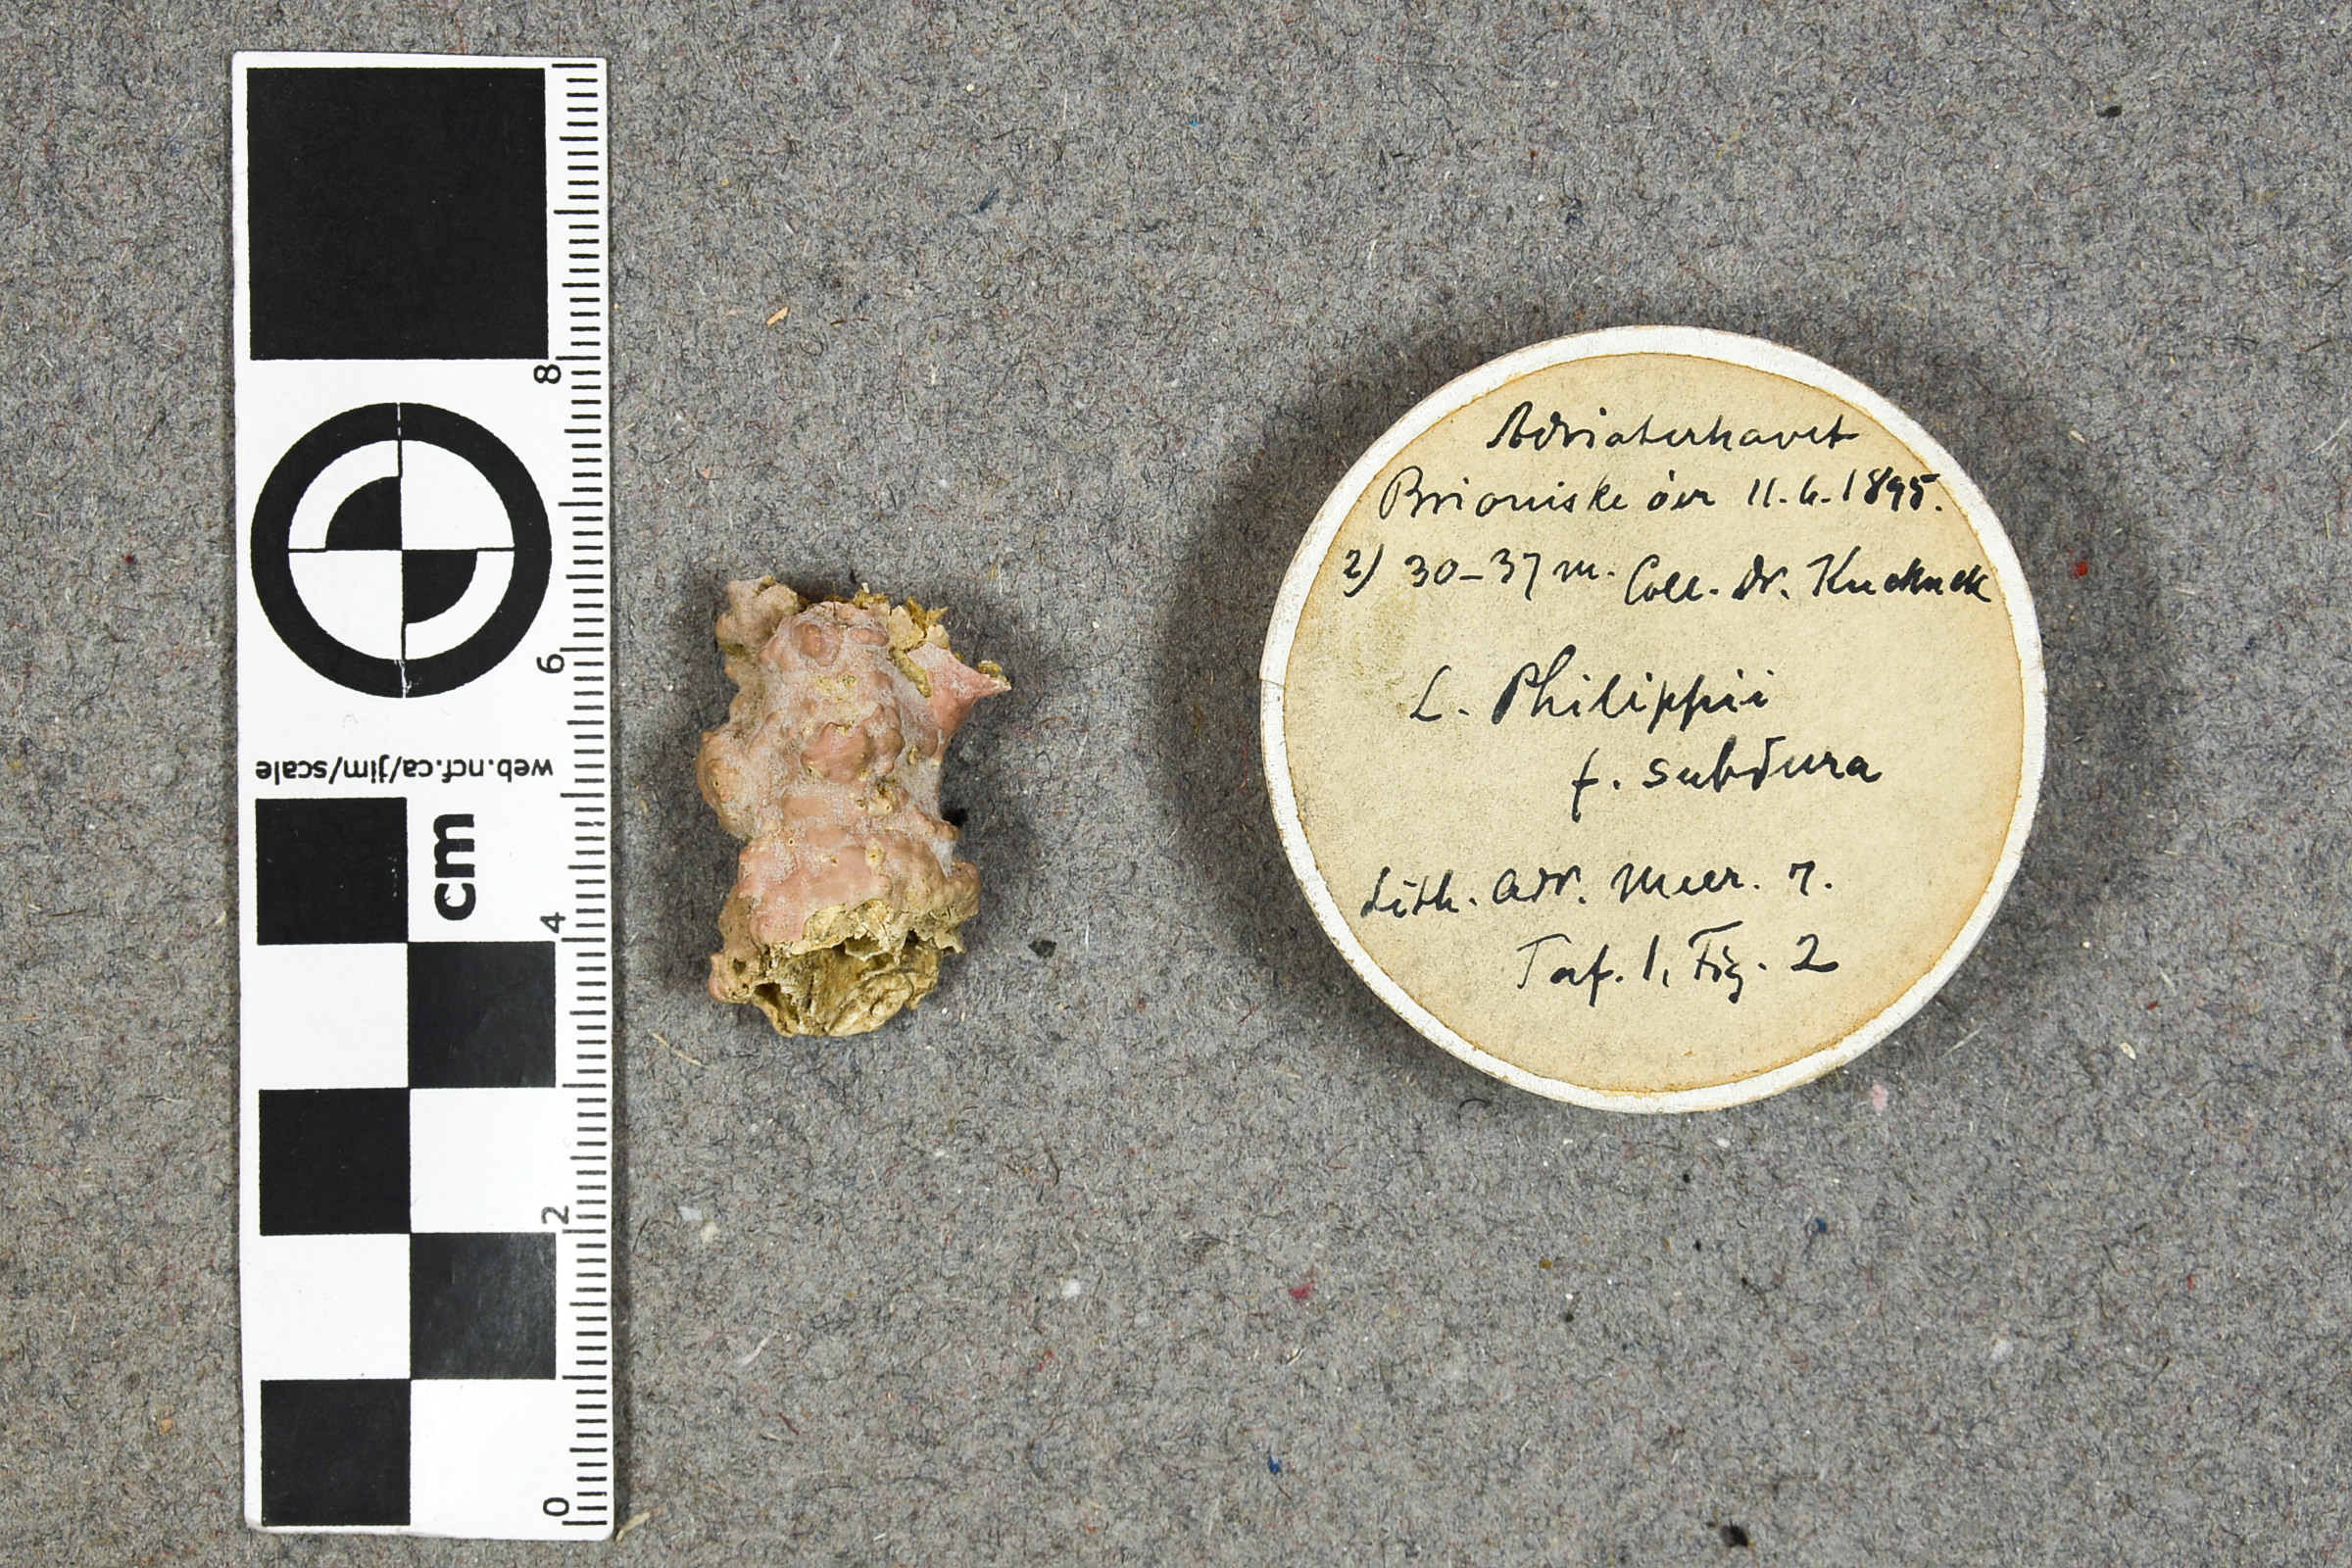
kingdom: Plantae
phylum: Rhodophyta
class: Florideophyceae
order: Corallinales
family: Mesophyllumaceae
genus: Mesophyllum
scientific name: Mesophyllum philippii
